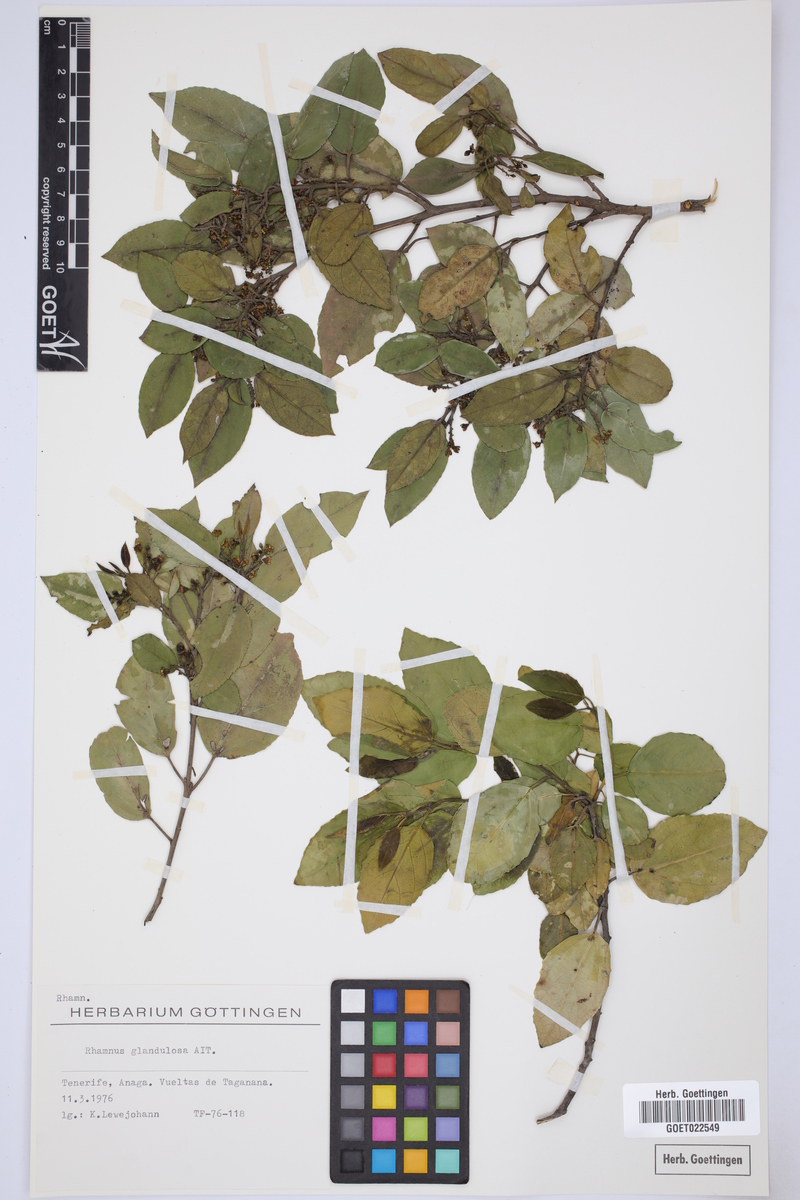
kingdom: Plantae
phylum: Tracheophyta
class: Magnoliopsida
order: Rosales
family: Rhamnaceae
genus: Rhamnus
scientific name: Rhamnus glandulosa
